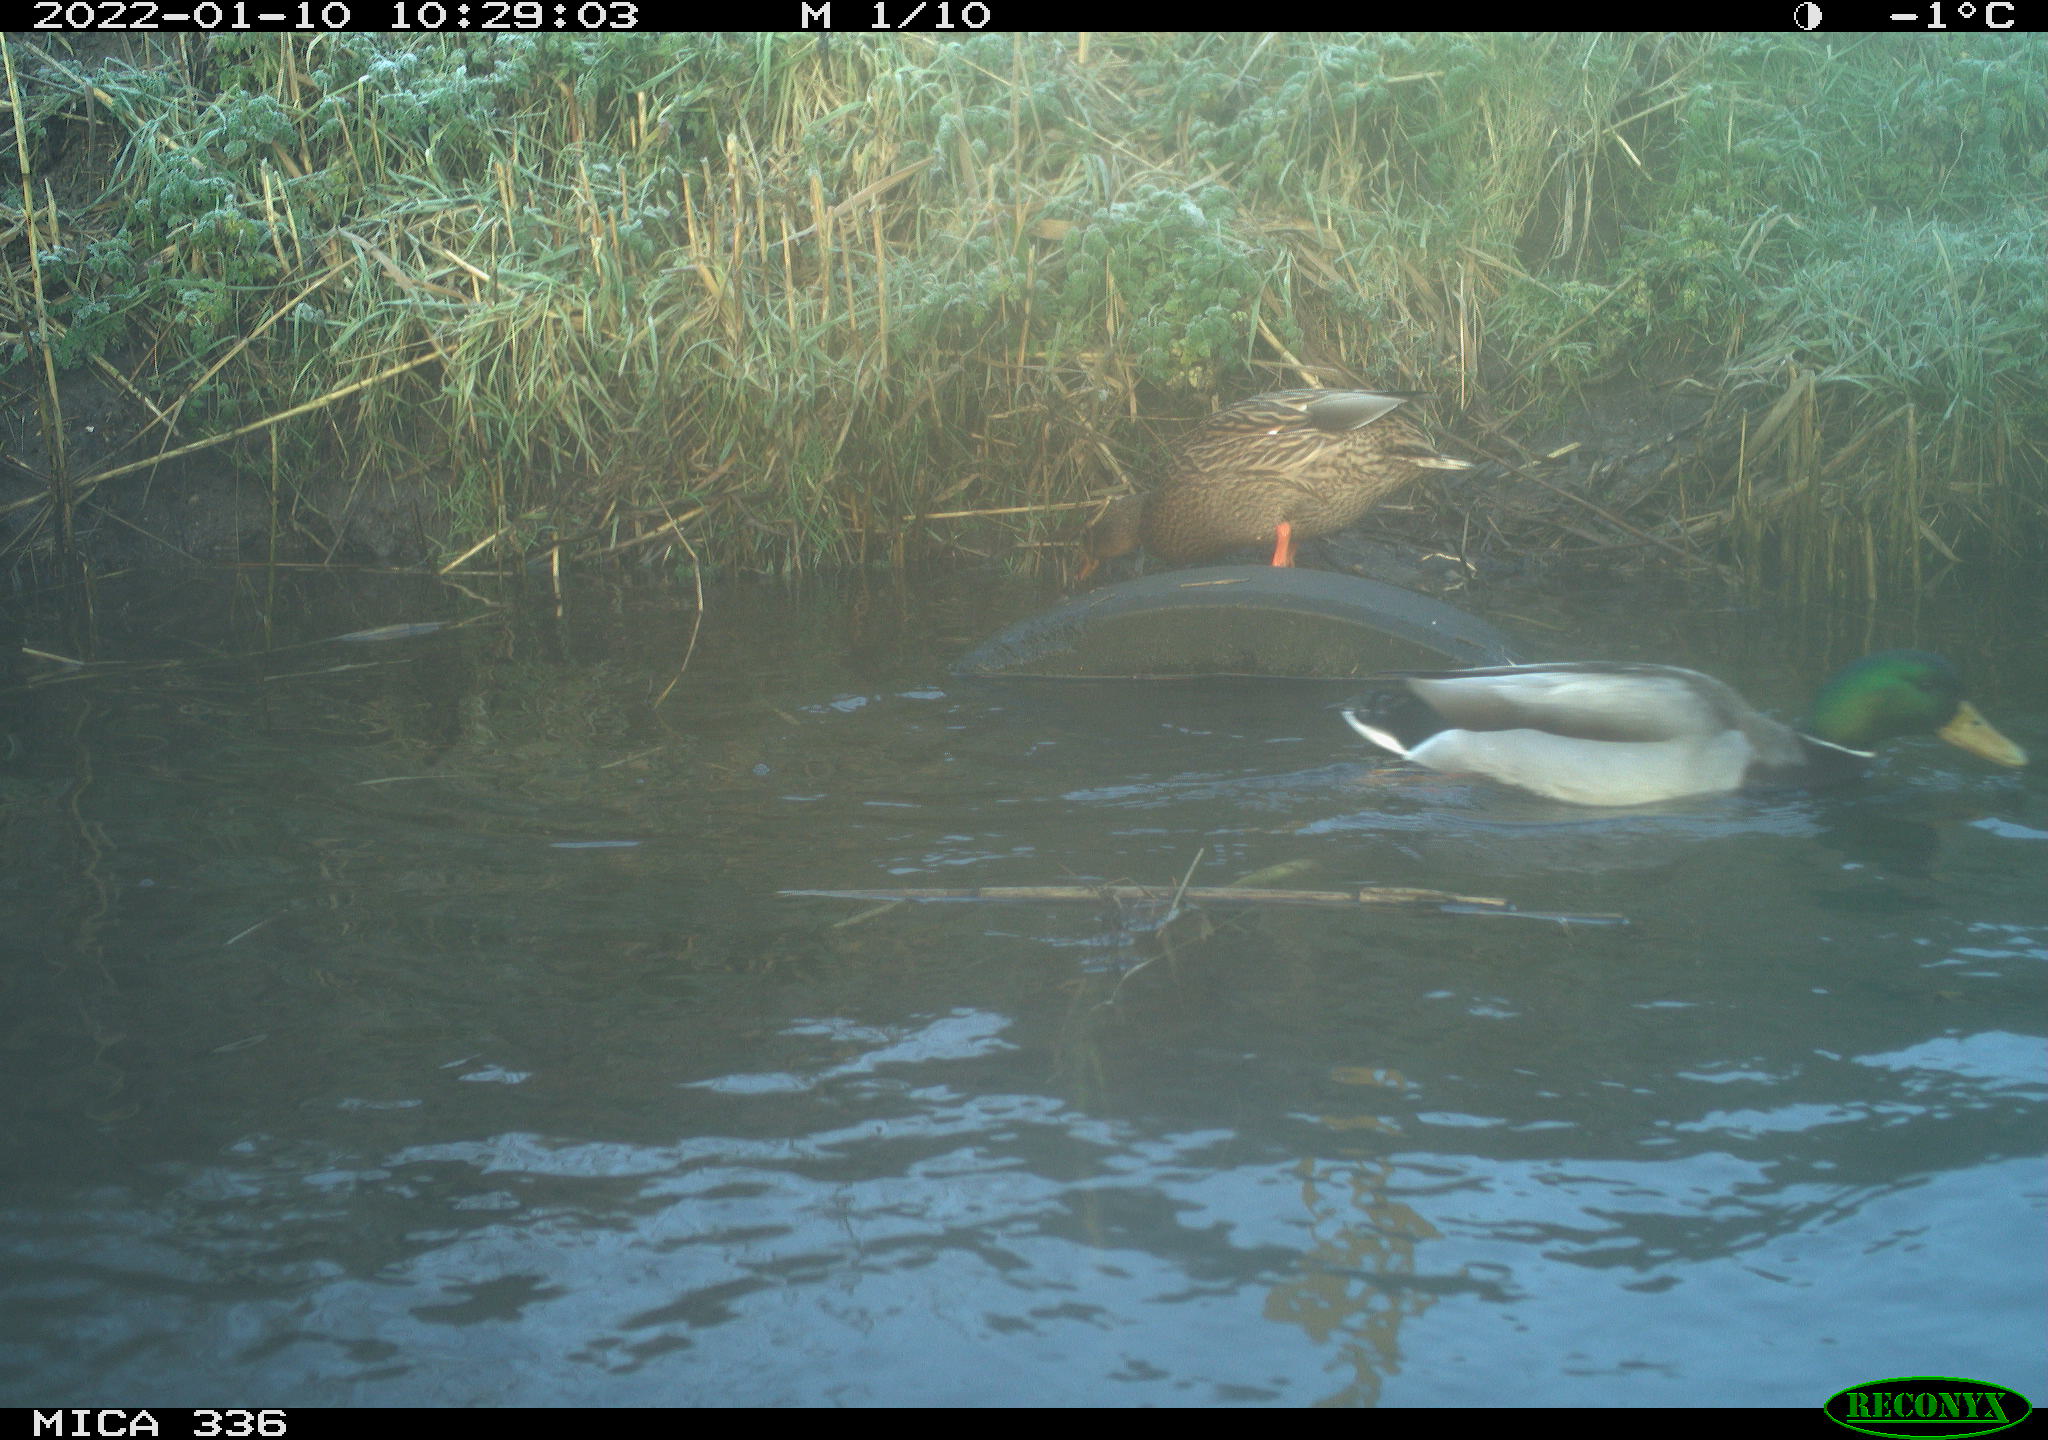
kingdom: Animalia
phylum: Chordata
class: Aves
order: Anseriformes
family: Anatidae
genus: Anas
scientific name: Anas platyrhynchos
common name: Mallard
